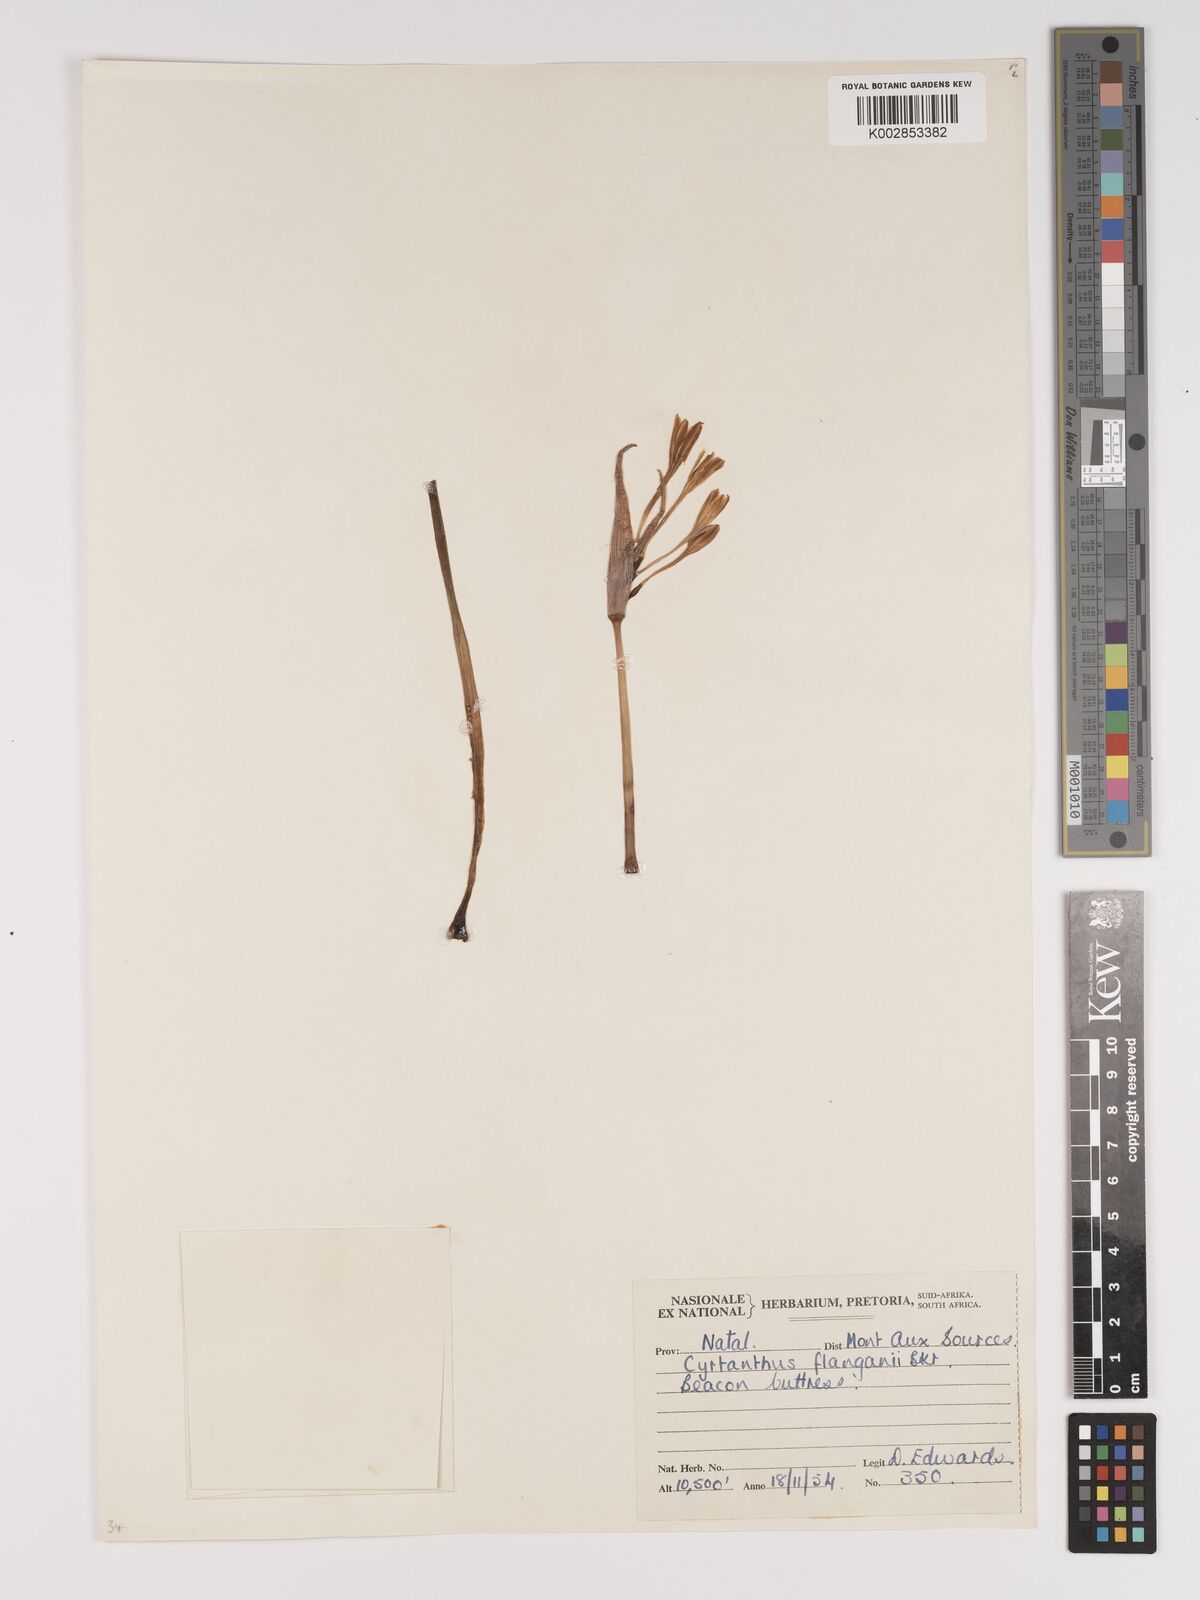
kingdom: Plantae
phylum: Tracheophyta
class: Liliopsida
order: Asparagales
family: Amaryllidaceae
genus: Cyrtanthus
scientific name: Cyrtanthus flanaganii
